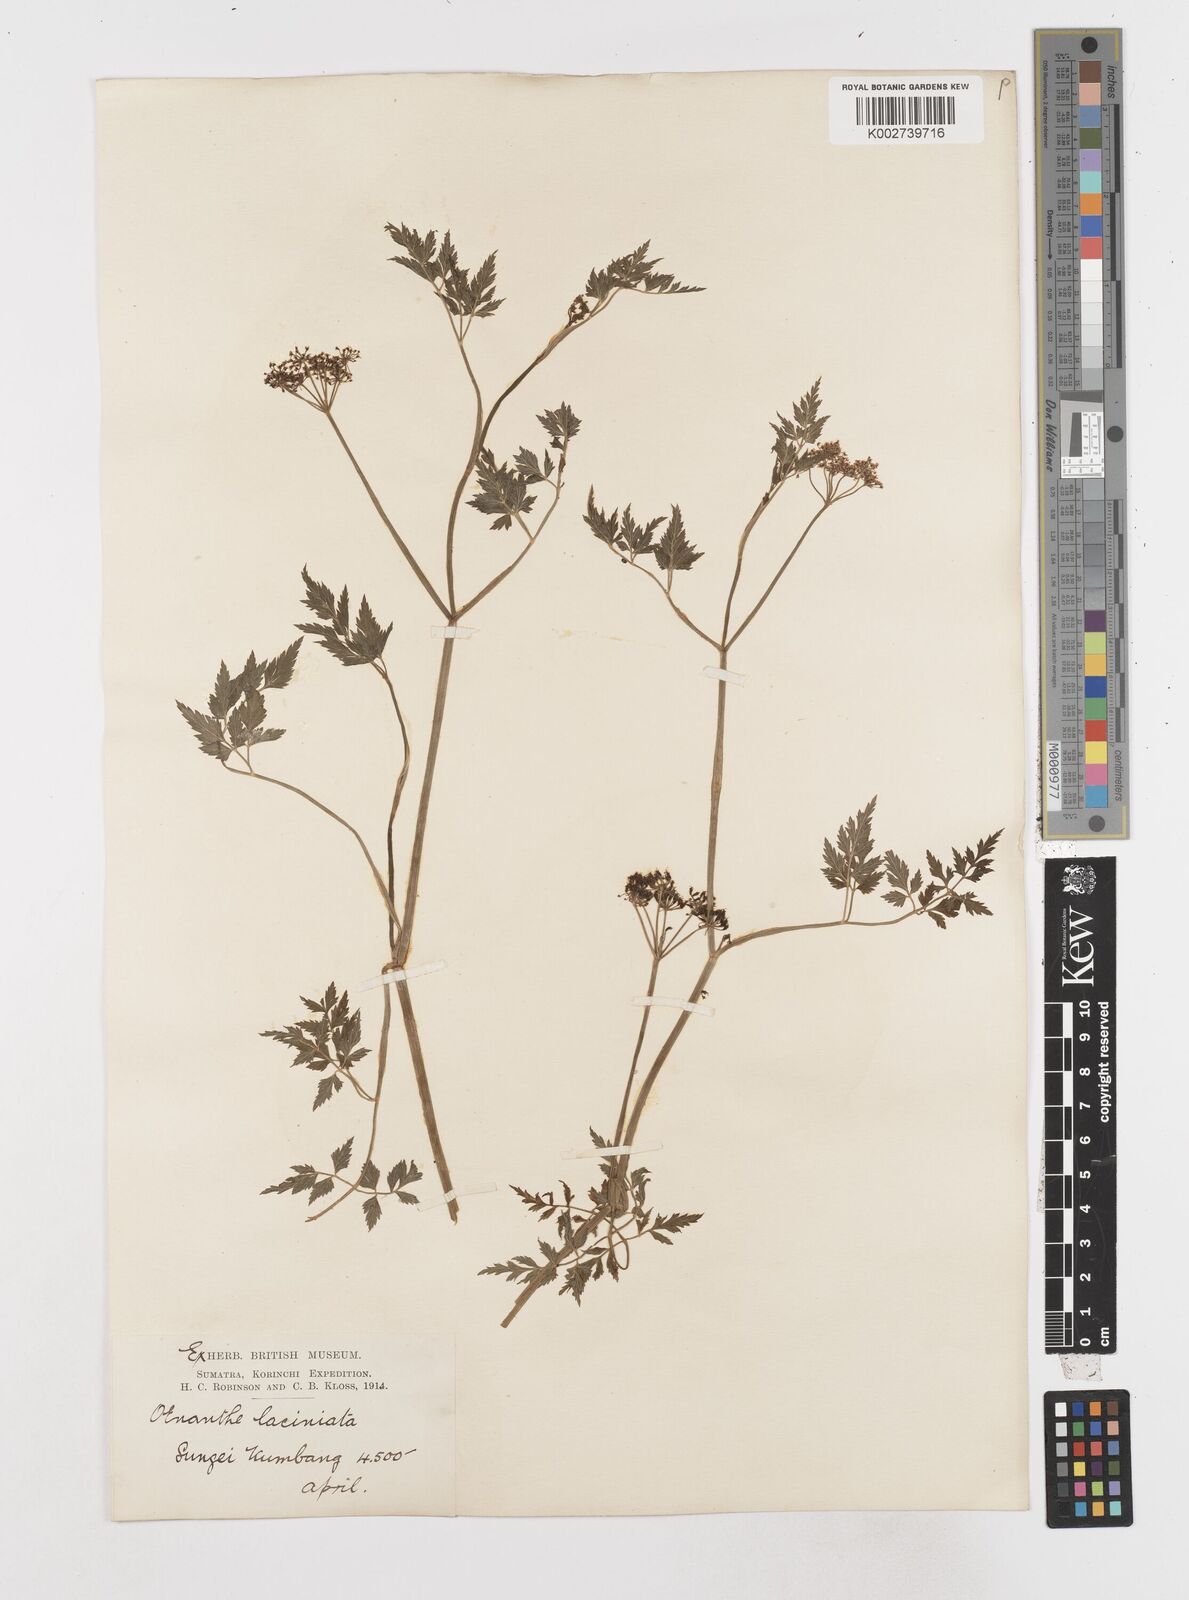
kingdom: Plantae
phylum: Tracheophyta
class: Magnoliopsida
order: Apiales
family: Apiaceae
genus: Oenanthe
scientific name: Oenanthe javanica
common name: Java water-dropwort
